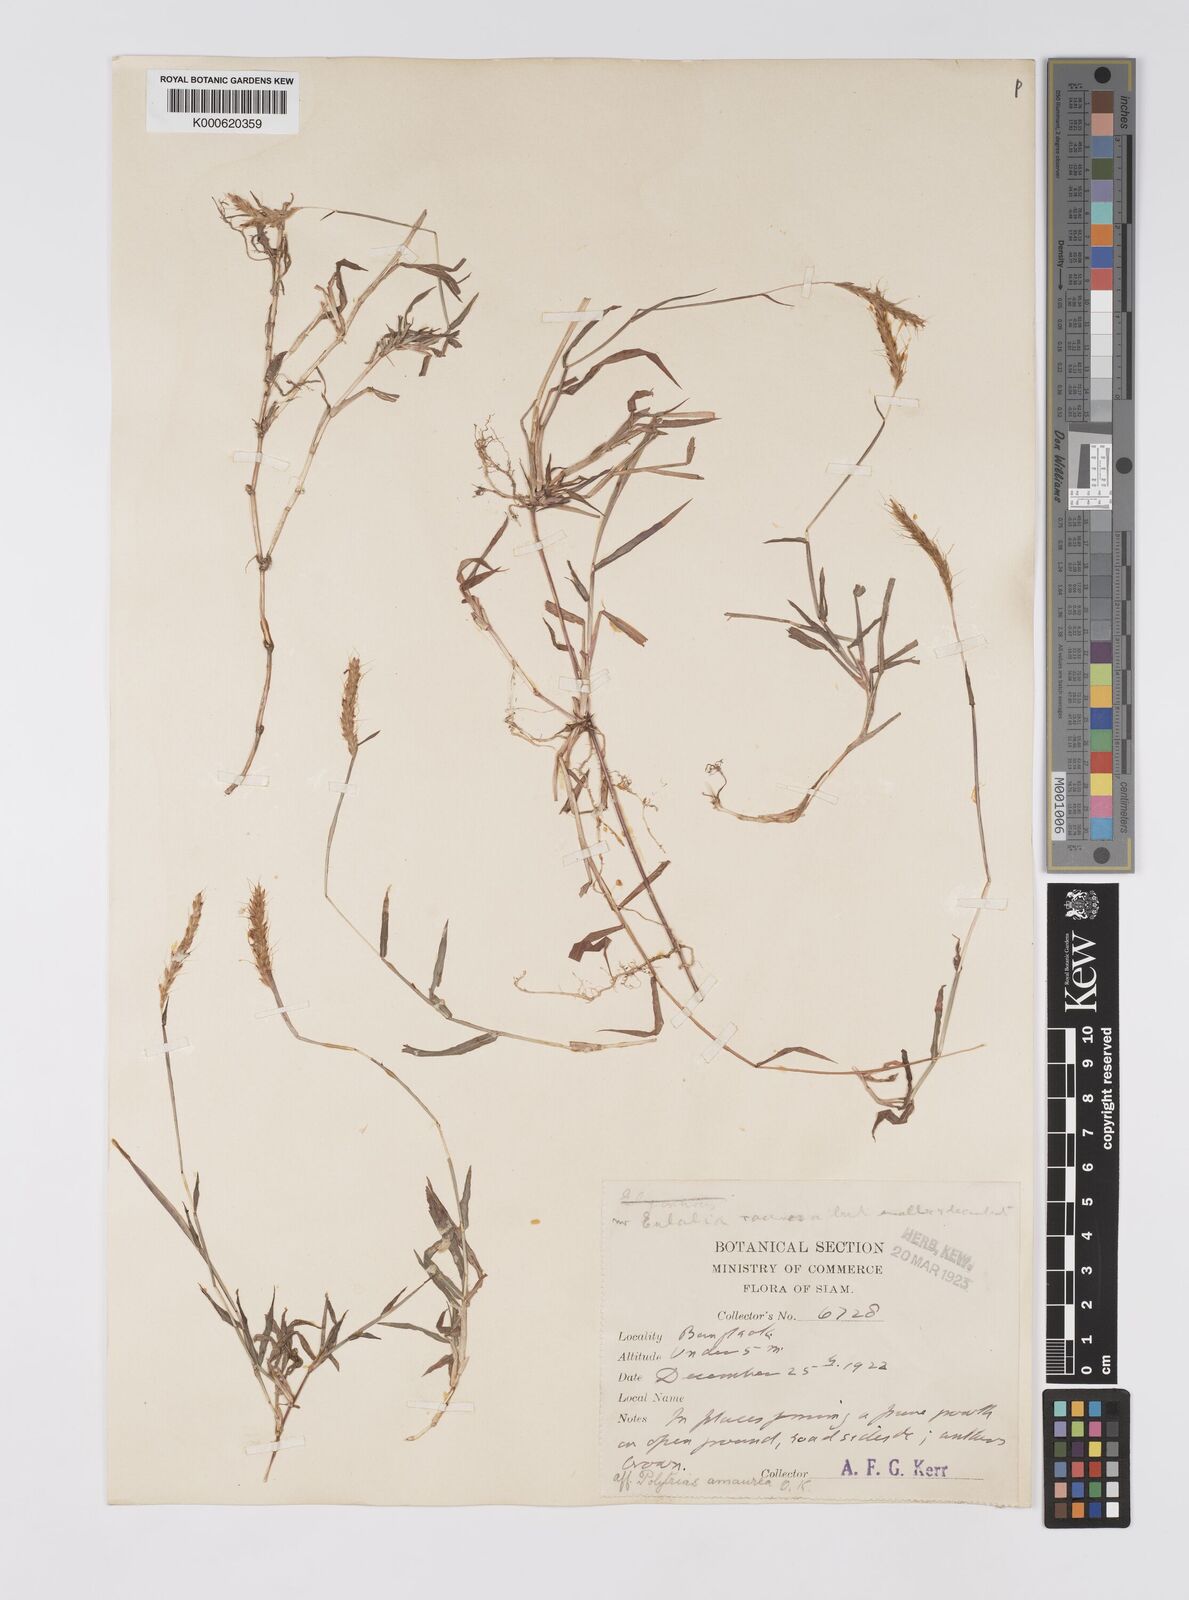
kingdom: Plantae
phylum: Tracheophyta
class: Liliopsida
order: Poales
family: Poaceae
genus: Polytrias
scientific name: Polytrias indica
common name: Indian murainagrass
